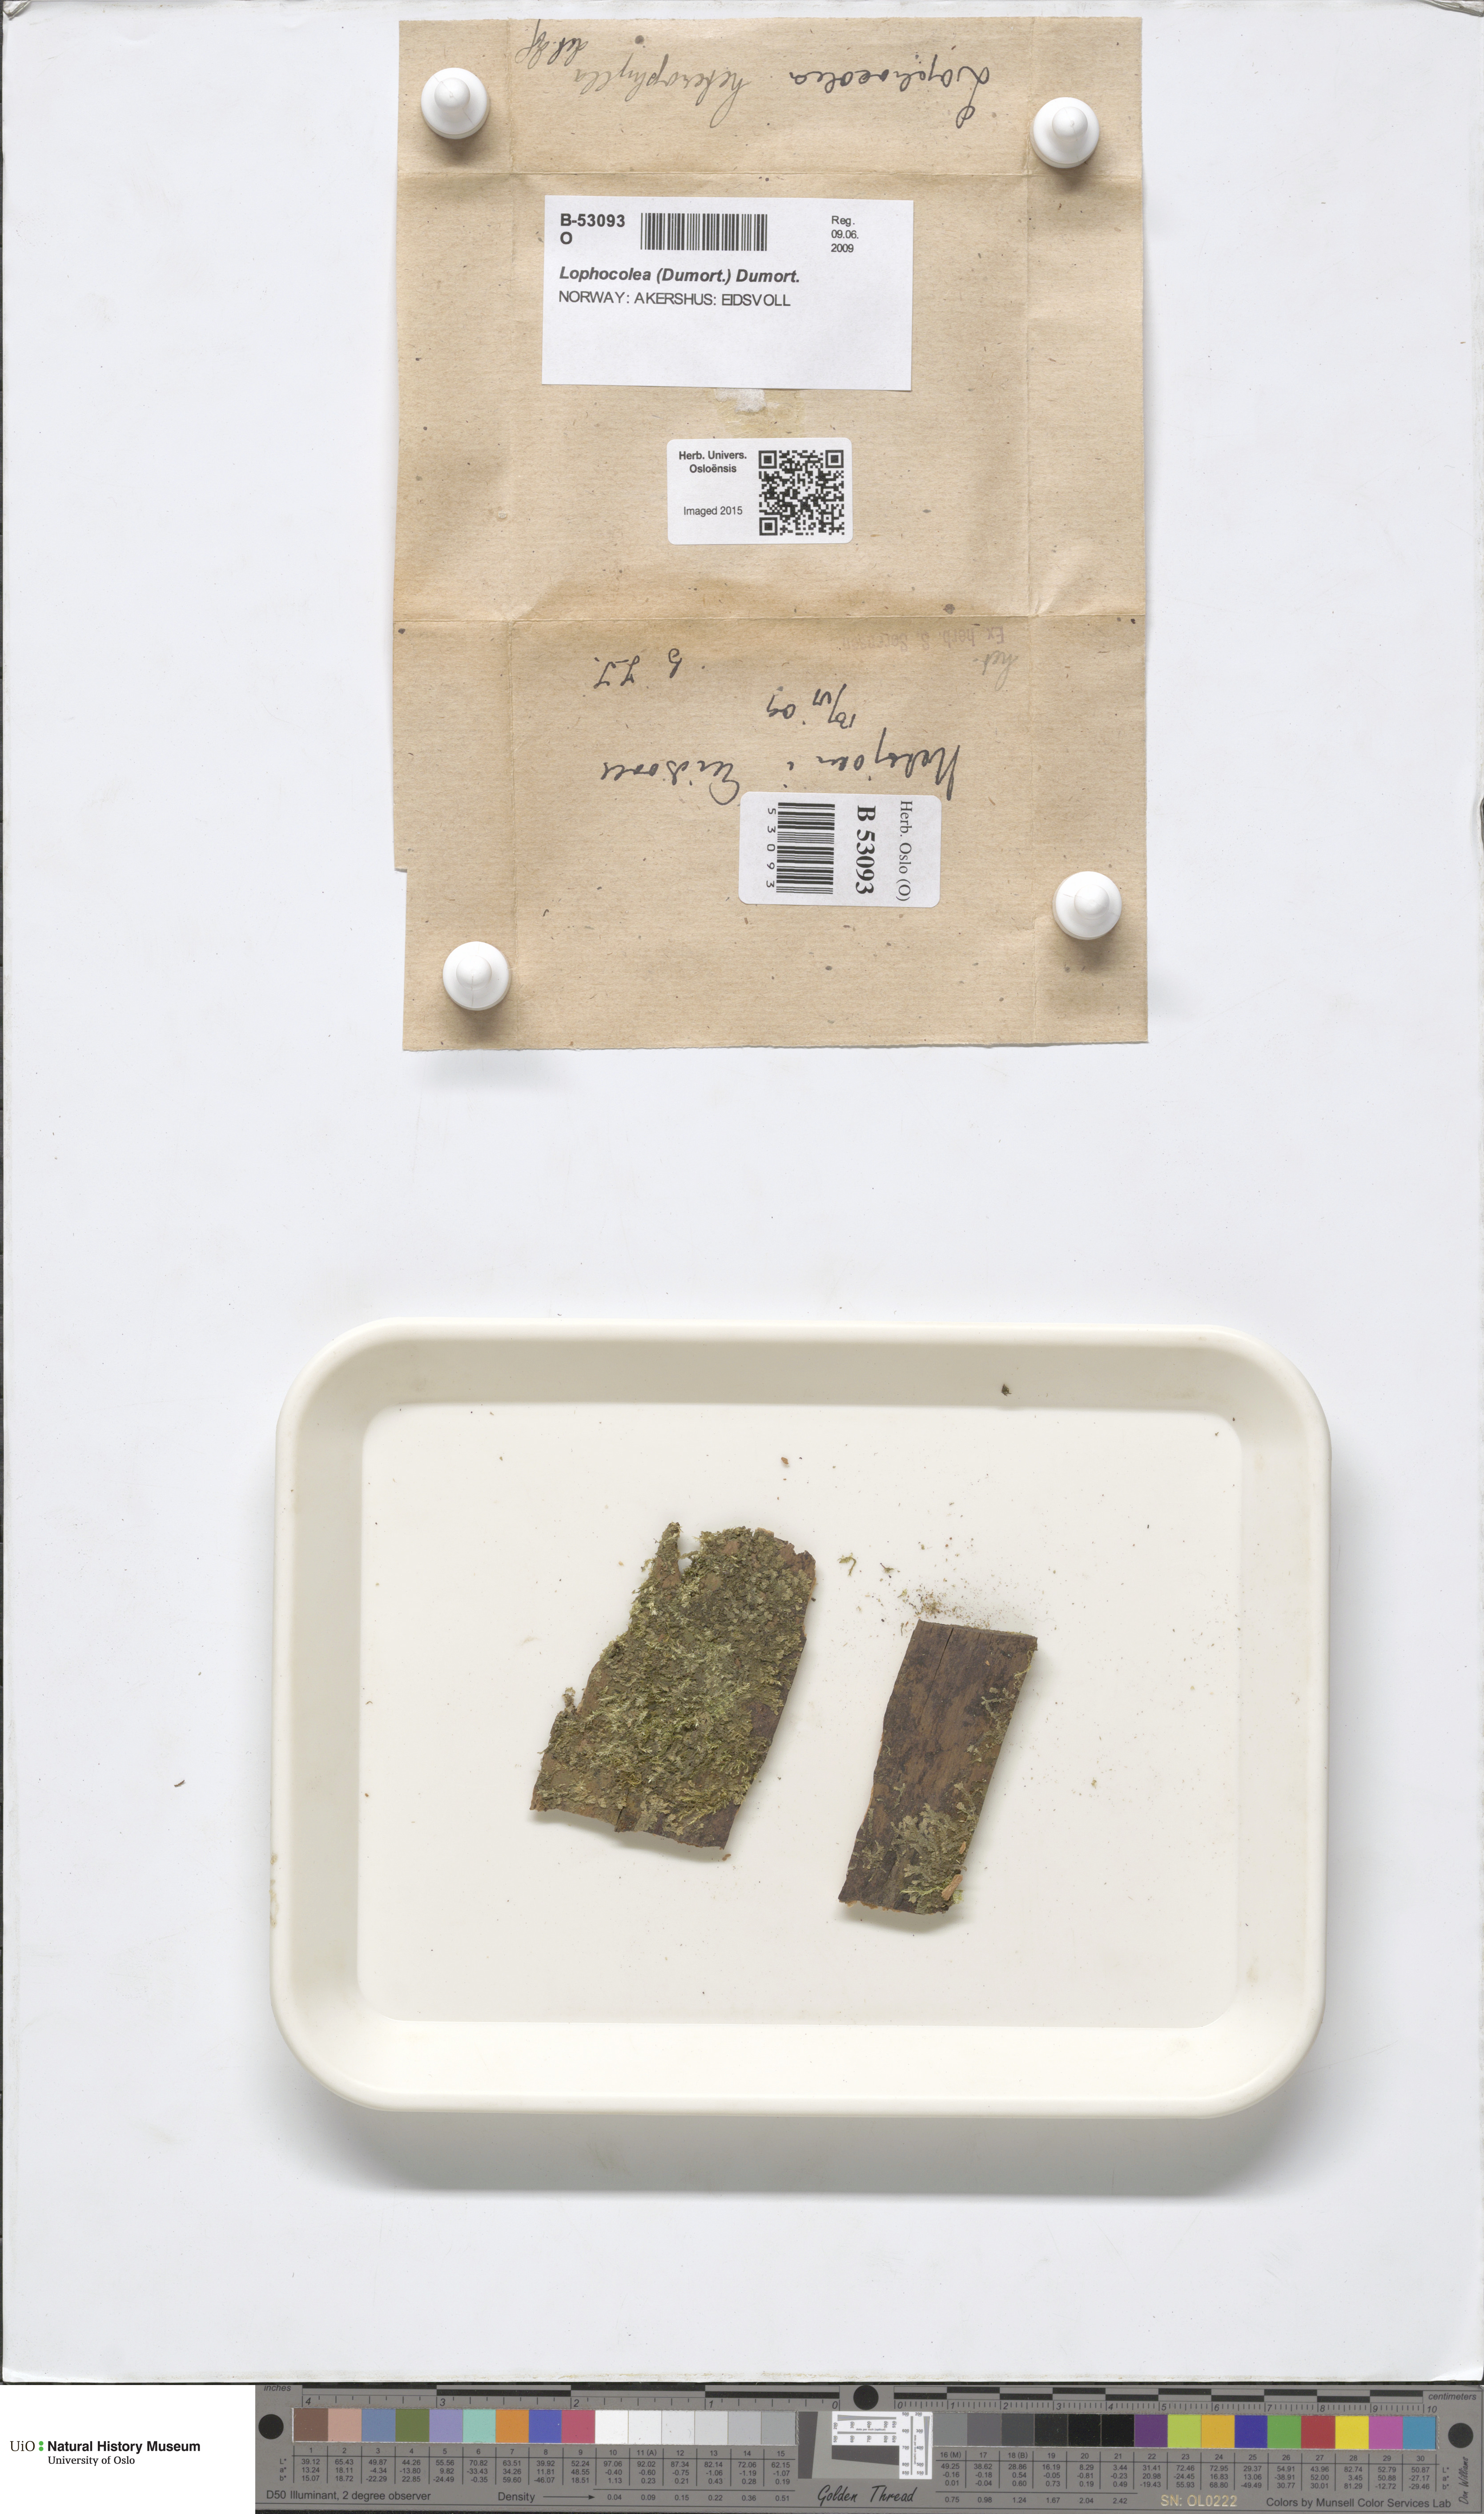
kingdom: Plantae
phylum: Marchantiophyta
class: Jungermanniopsida
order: Jungermanniales
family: Lophocoleaceae
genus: Lophocolea
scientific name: Lophocolea heterophylla
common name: Variable-leaved crestwort
